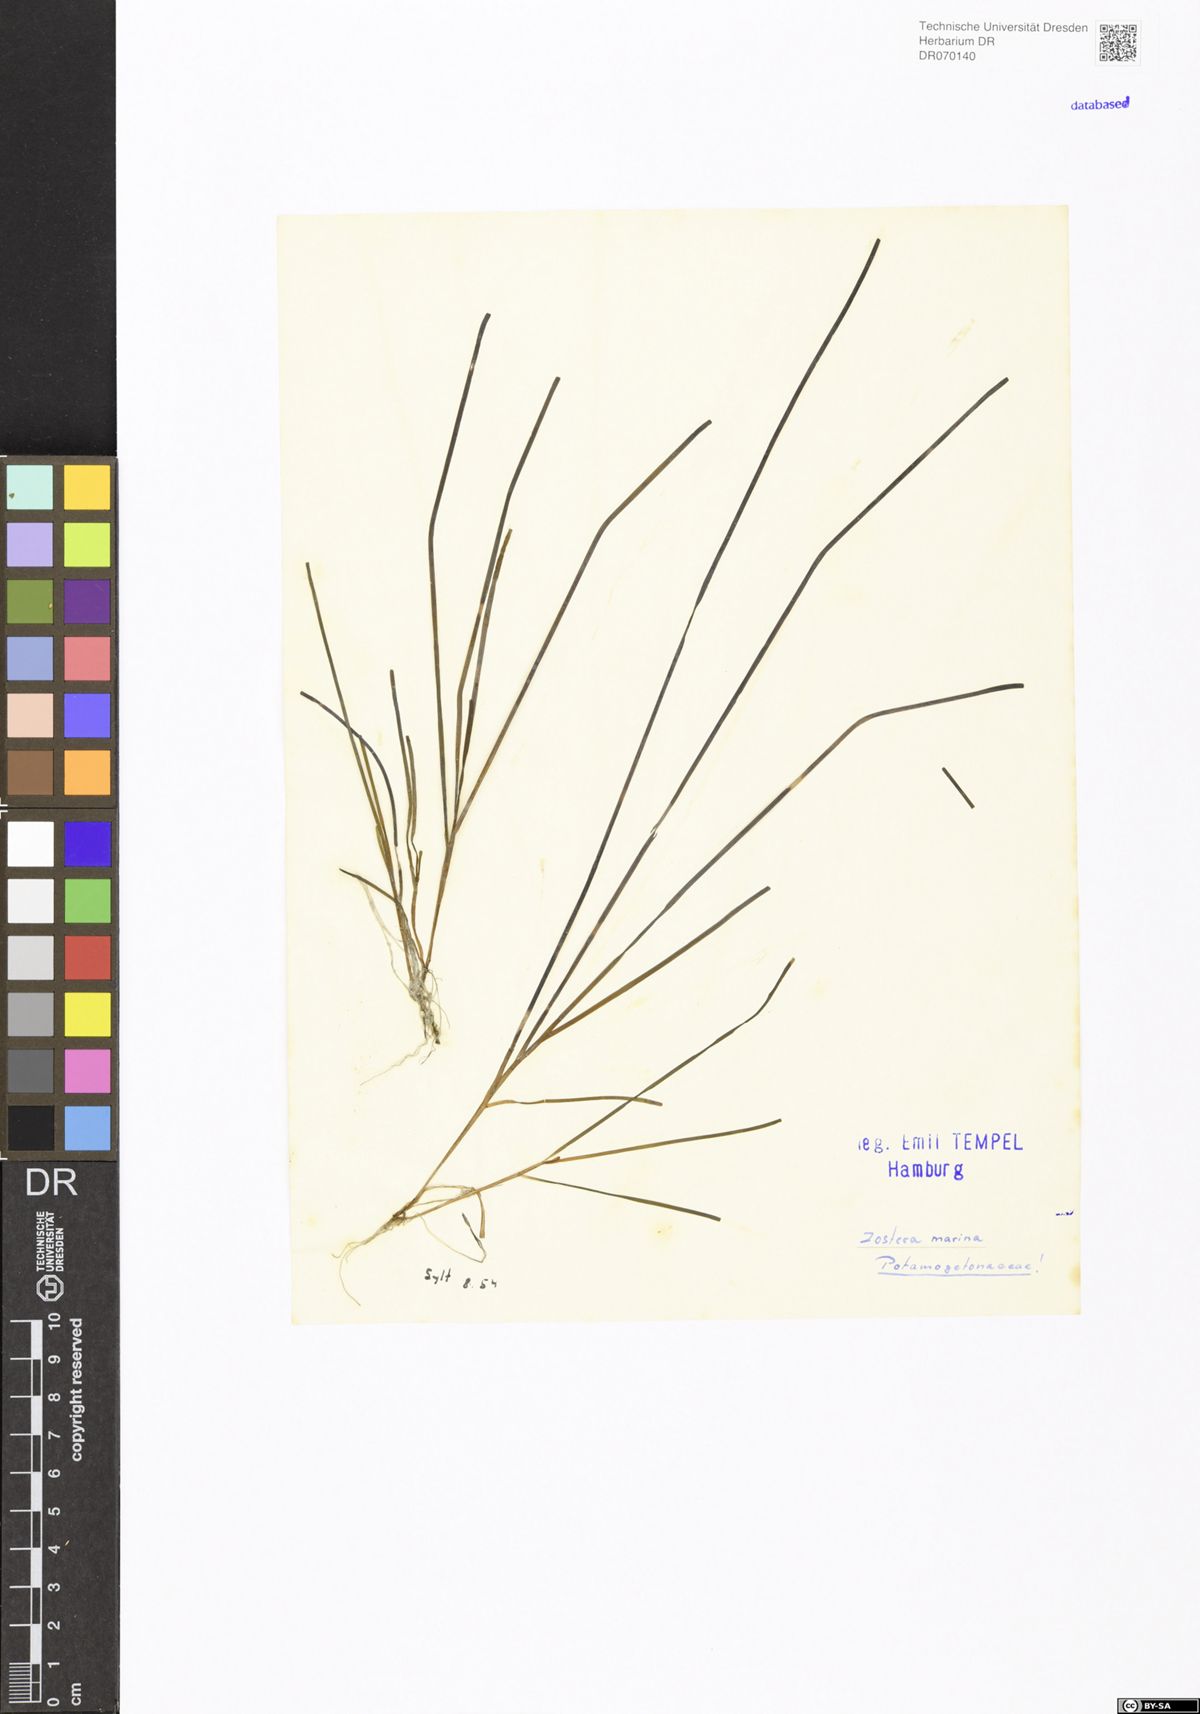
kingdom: Plantae
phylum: Tracheophyta
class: Liliopsida
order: Alismatales
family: Zosteraceae
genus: Zostera
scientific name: Zostera marina
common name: Eelgrass
